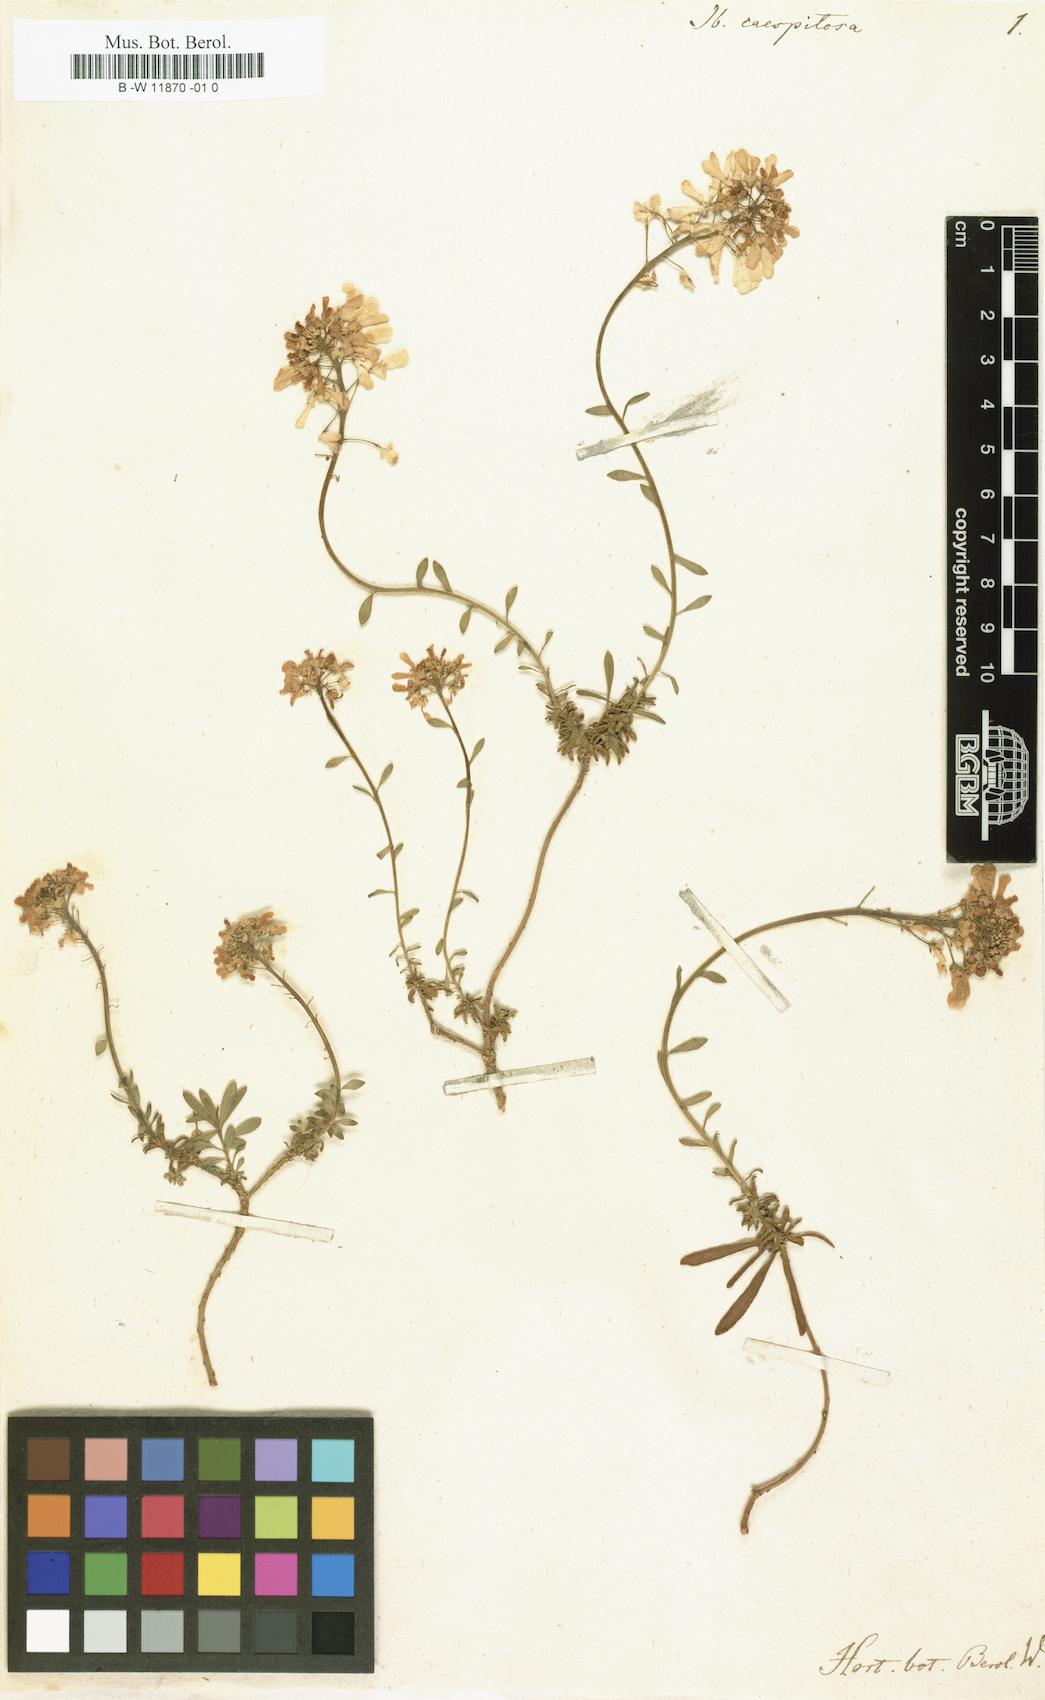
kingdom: Plantae
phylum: Tracheophyta
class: Magnoliopsida
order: Brassicales
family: Brassicaceae
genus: Iberis
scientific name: Iberis
